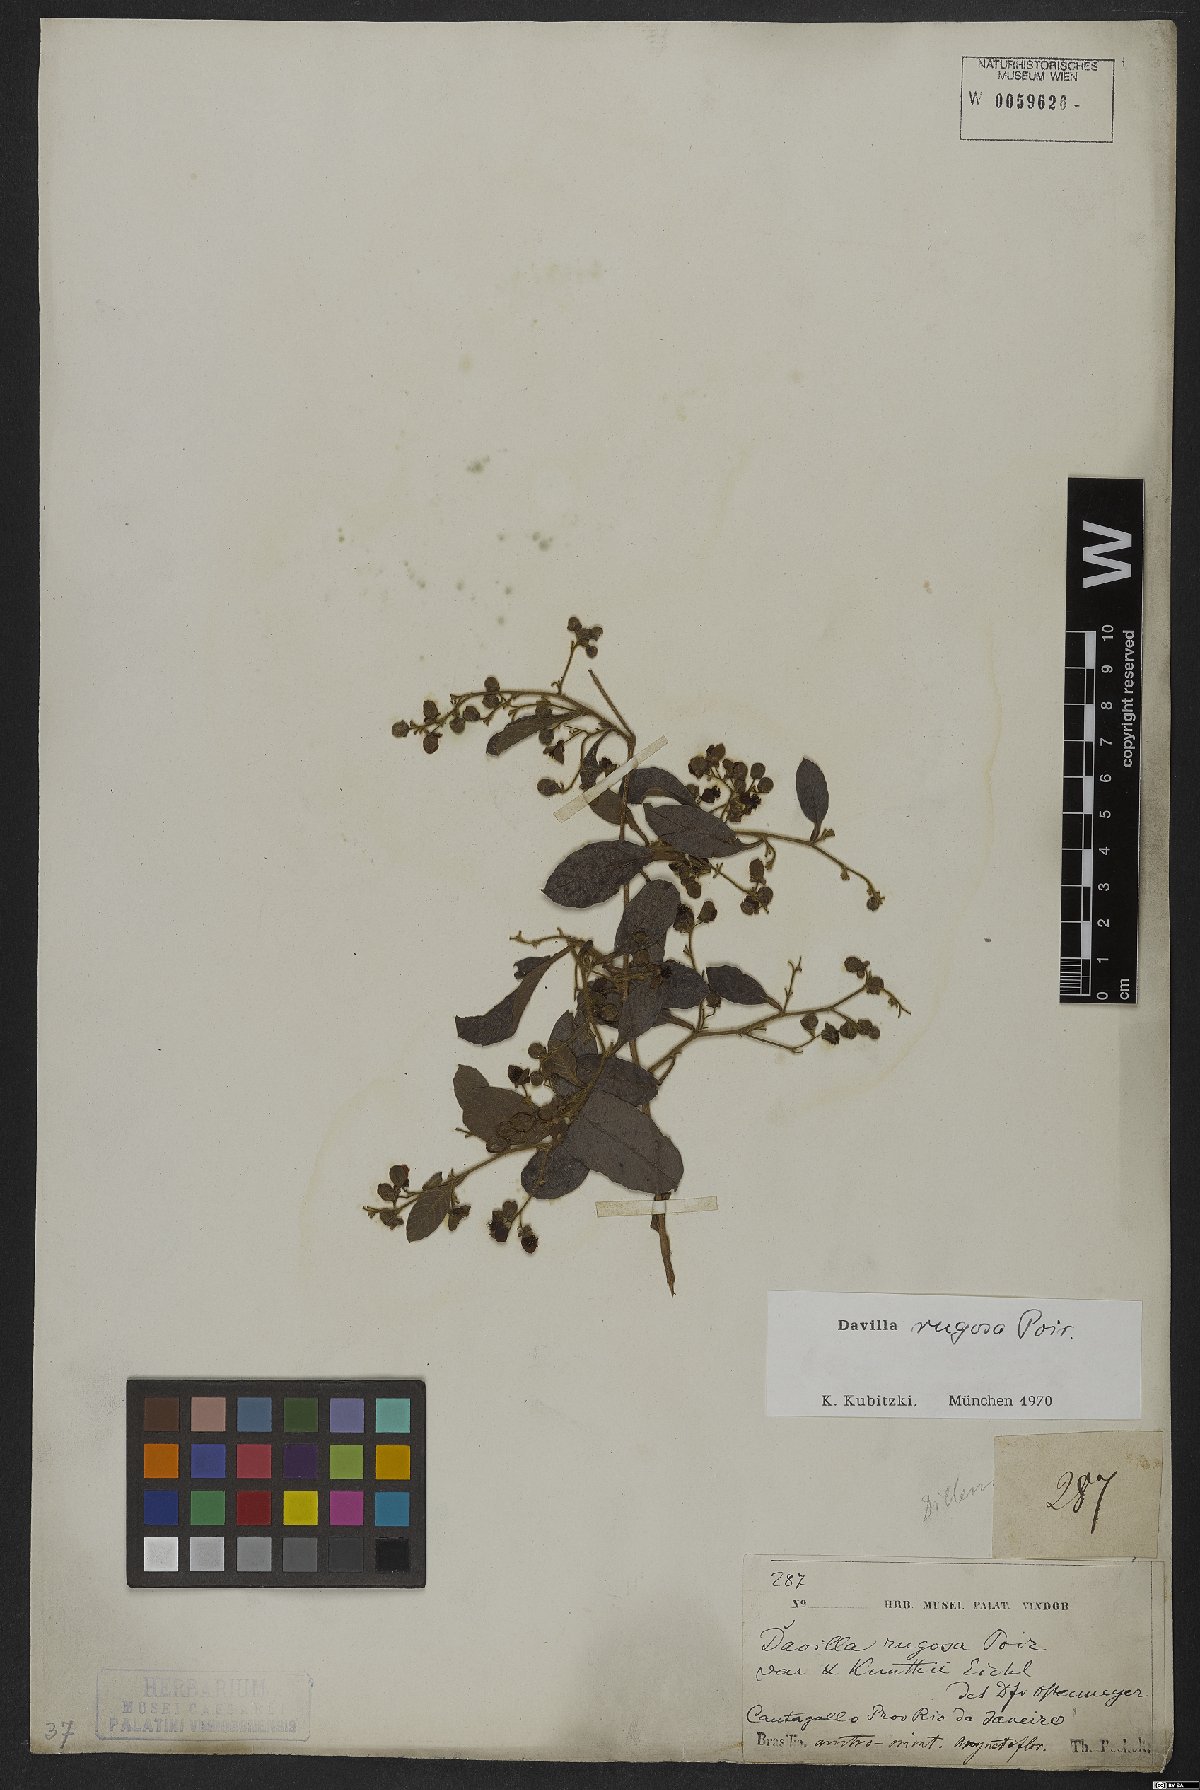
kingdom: Plantae
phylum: Tracheophyta
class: Magnoliopsida
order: Dilleniales
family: Dilleniaceae
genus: Davilla
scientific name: Davilla rugosa
